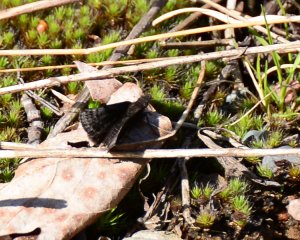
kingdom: Animalia
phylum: Arthropoda
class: Insecta
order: Lepidoptera
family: Hesperiidae
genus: Erynnis
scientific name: Erynnis icelus
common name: Dreamy Duskywing
